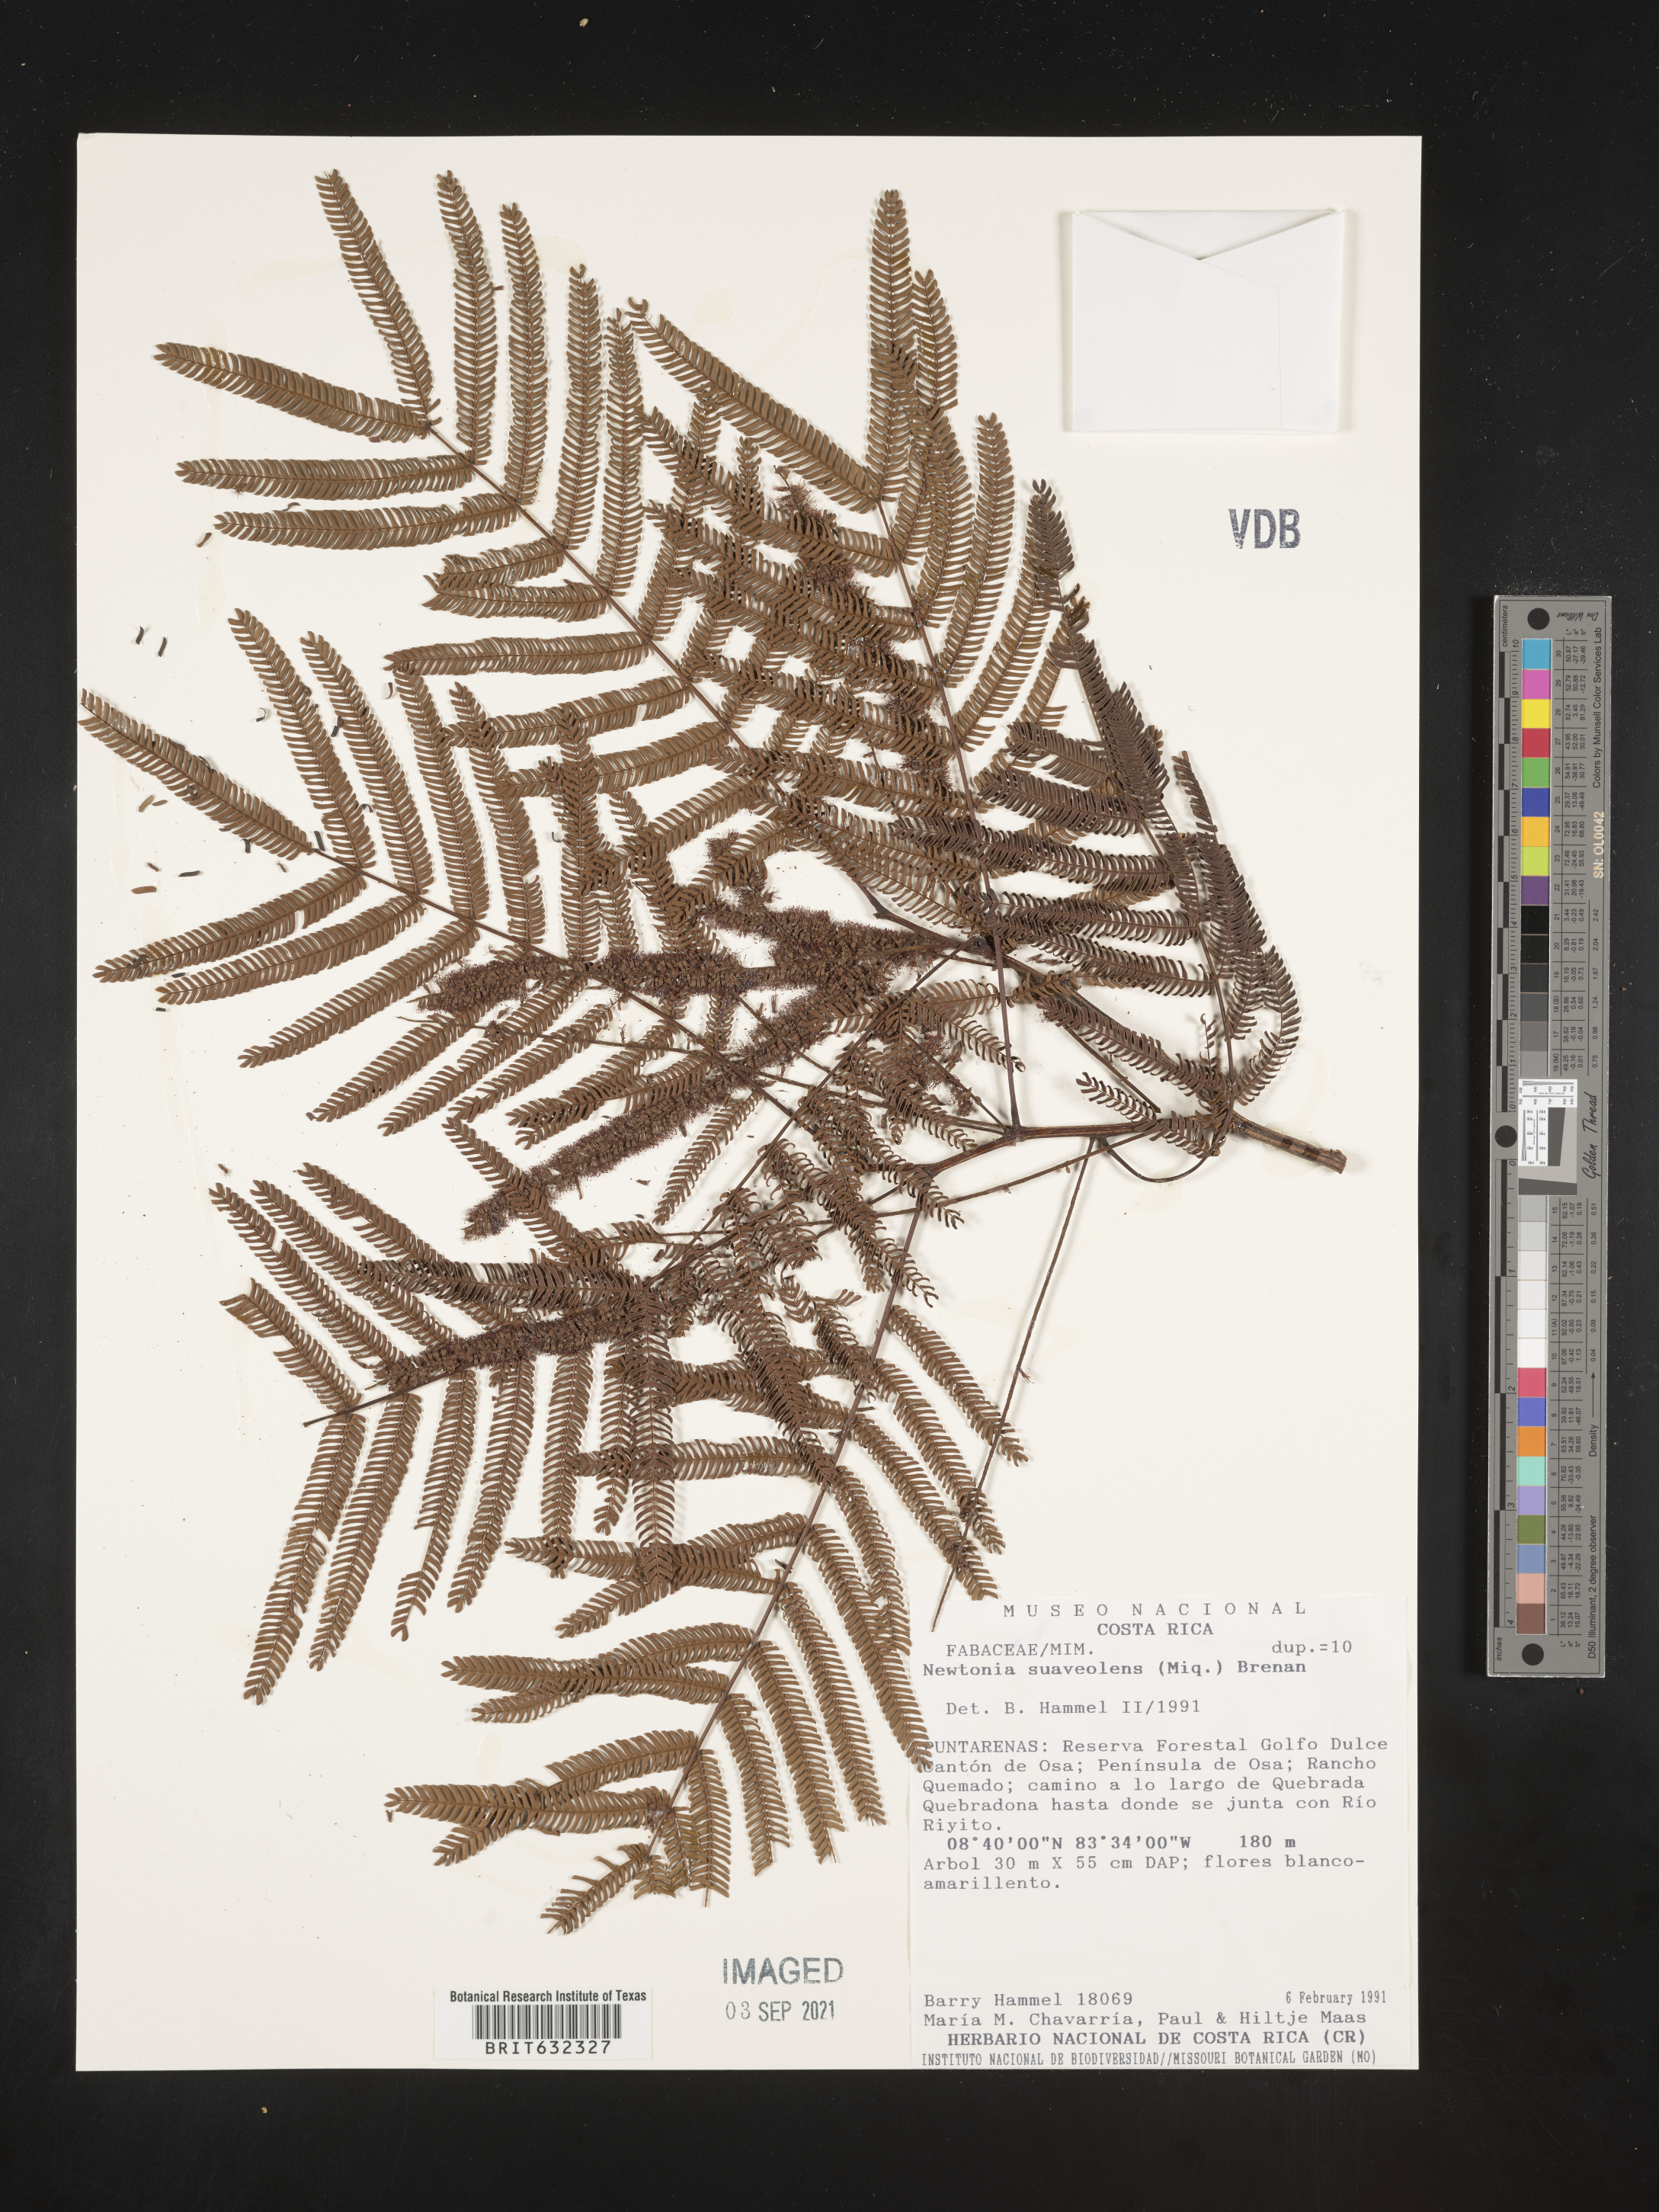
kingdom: Plantae
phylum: Tracheophyta
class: Magnoliopsida
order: Fabales
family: Fabaceae
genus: Newtonia
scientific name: Newtonia
